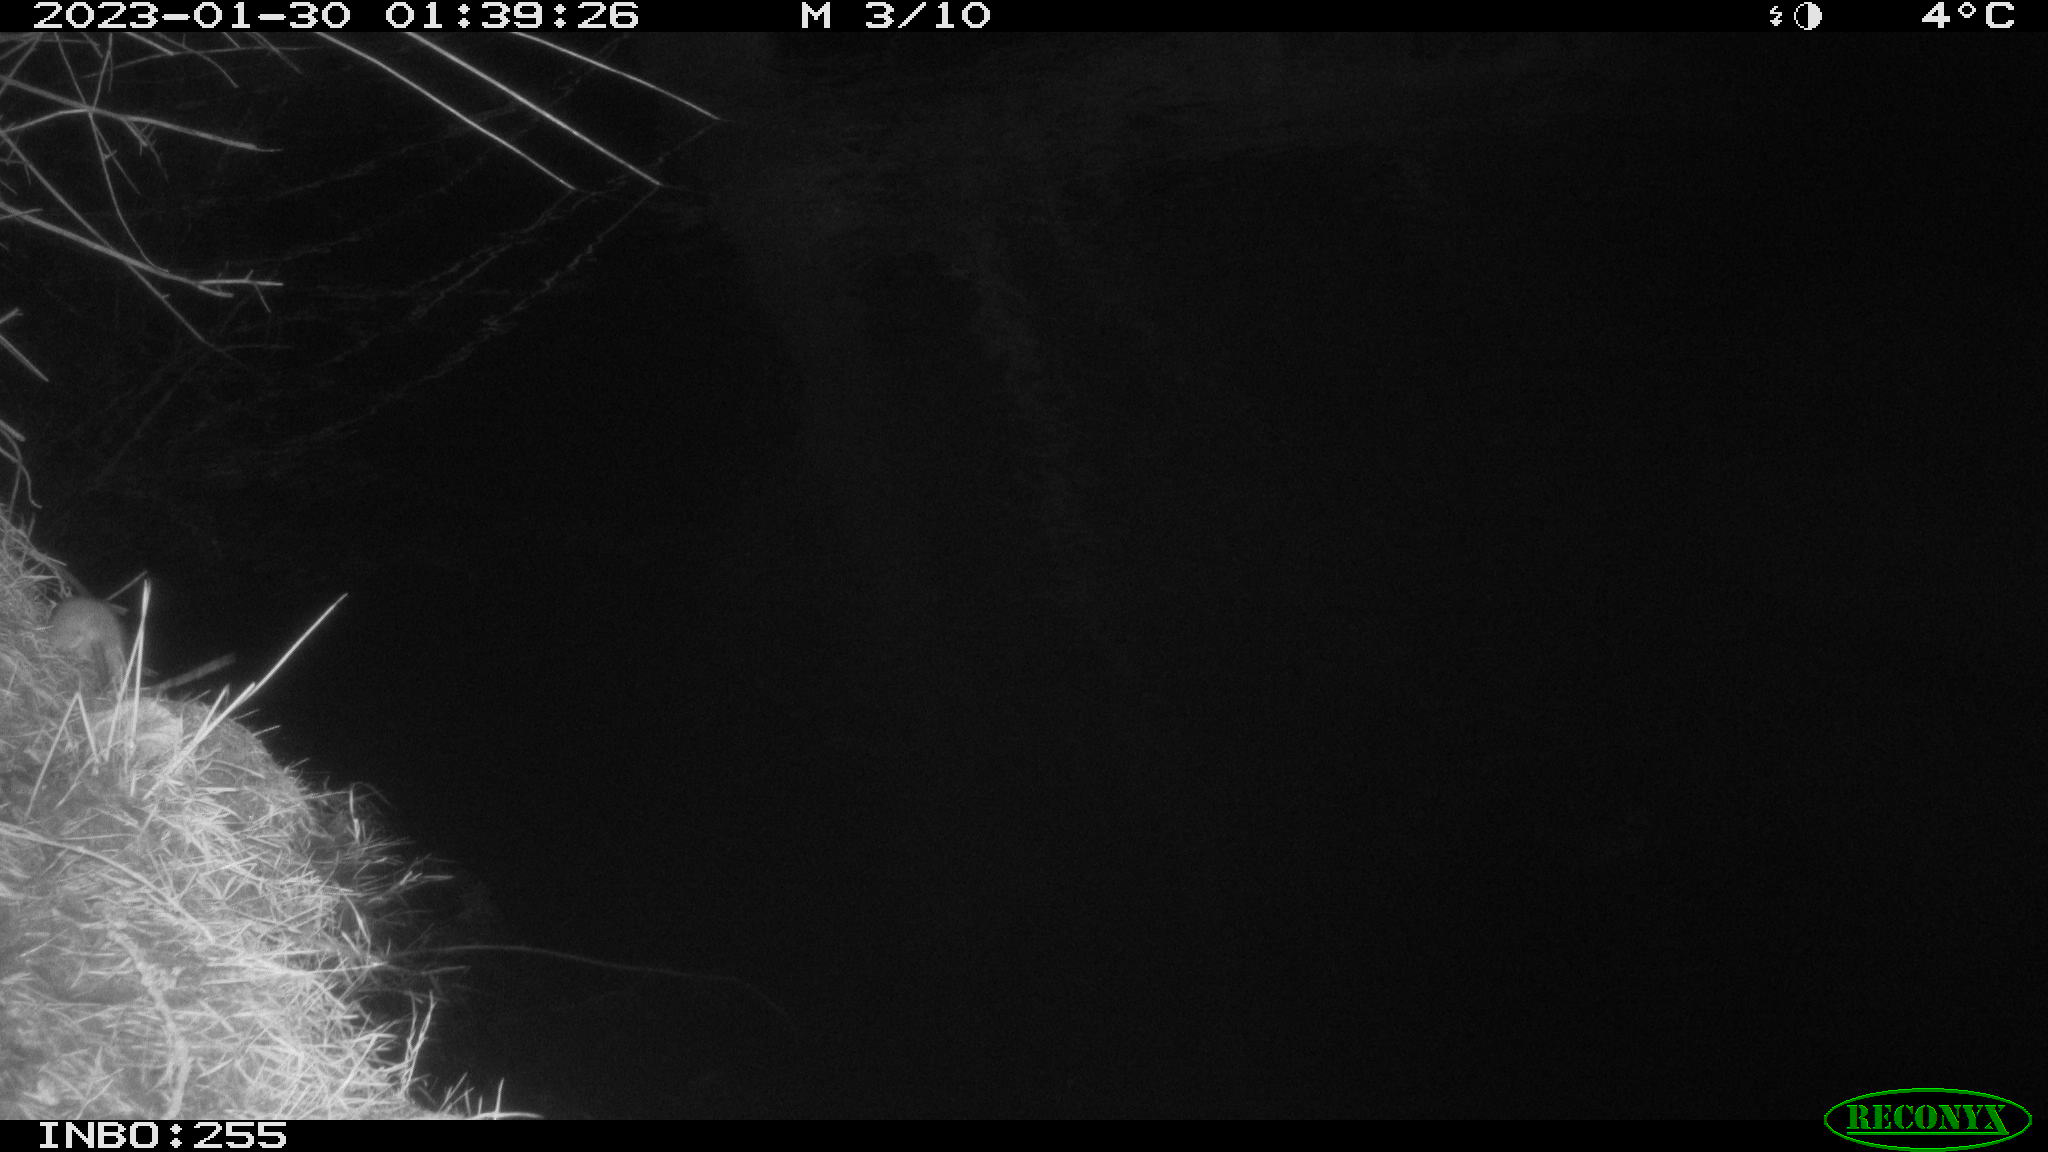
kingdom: Animalia
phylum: Chordata
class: Mammalia
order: Rodentia
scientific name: Rodentia
